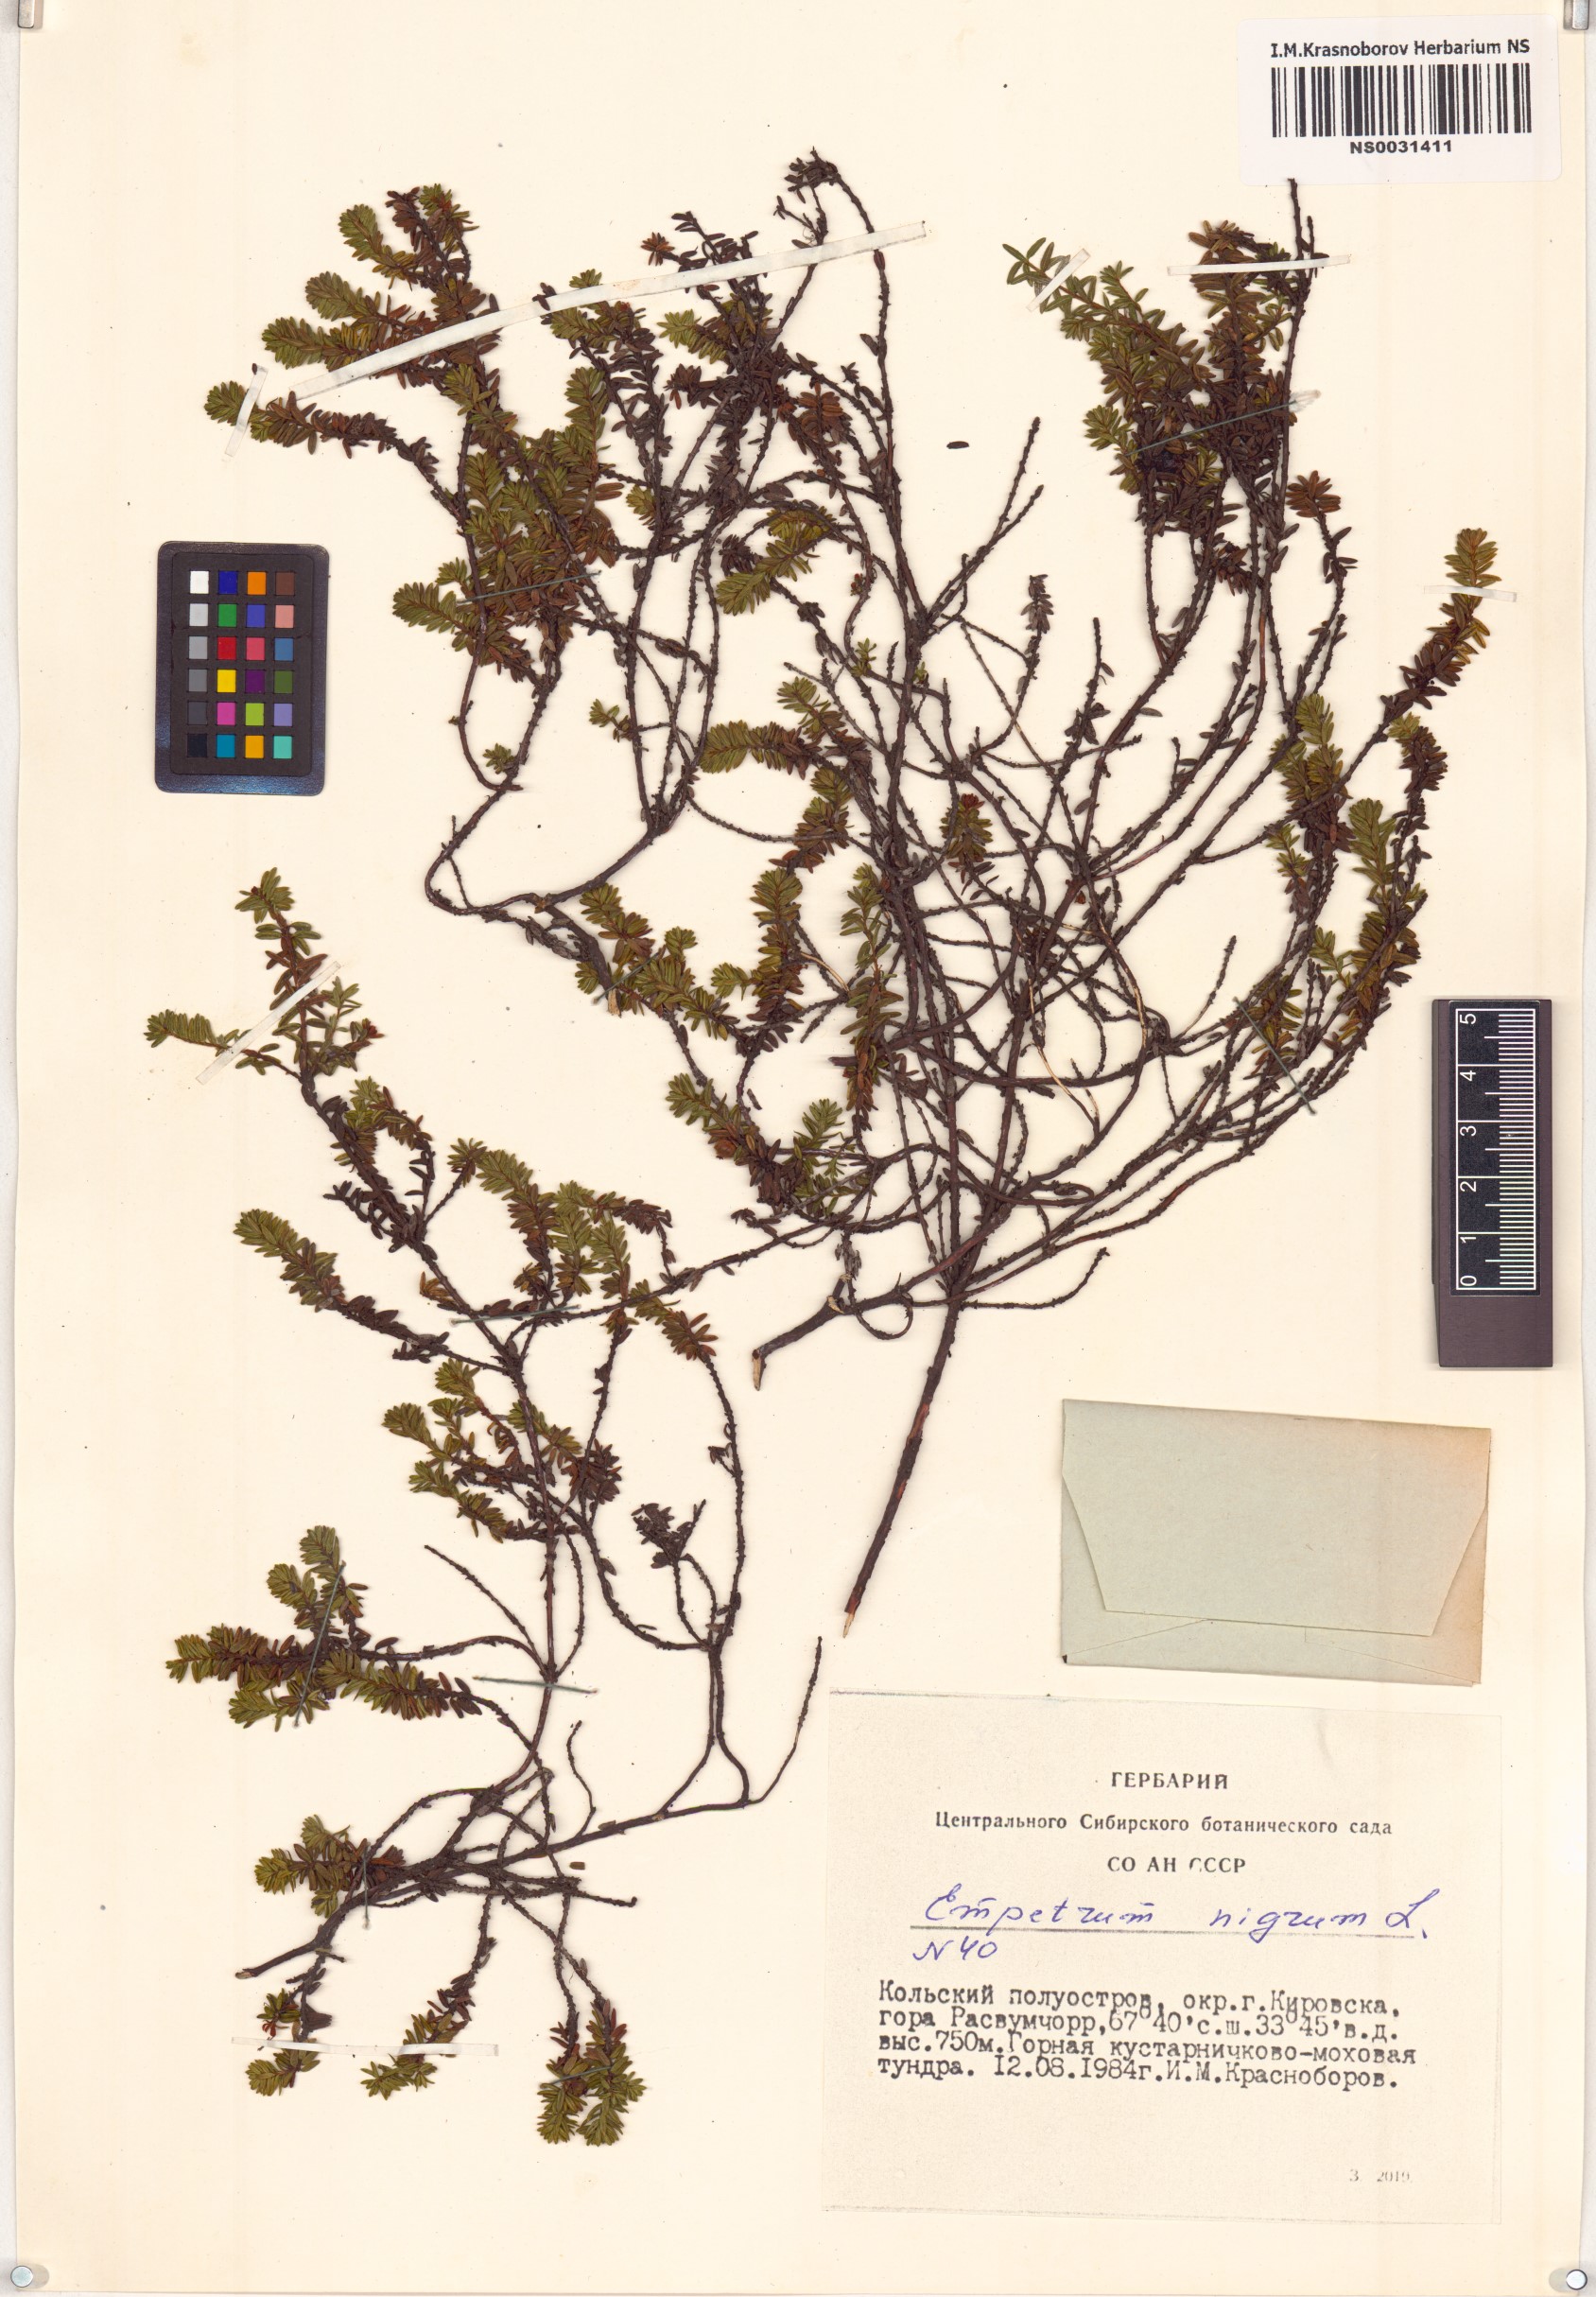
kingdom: Plantae
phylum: Tracheophyta
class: Magnoliopsida
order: Ericales
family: Ericaceae
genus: Empetrum
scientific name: Empetrum nigrum
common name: Black crowberry
